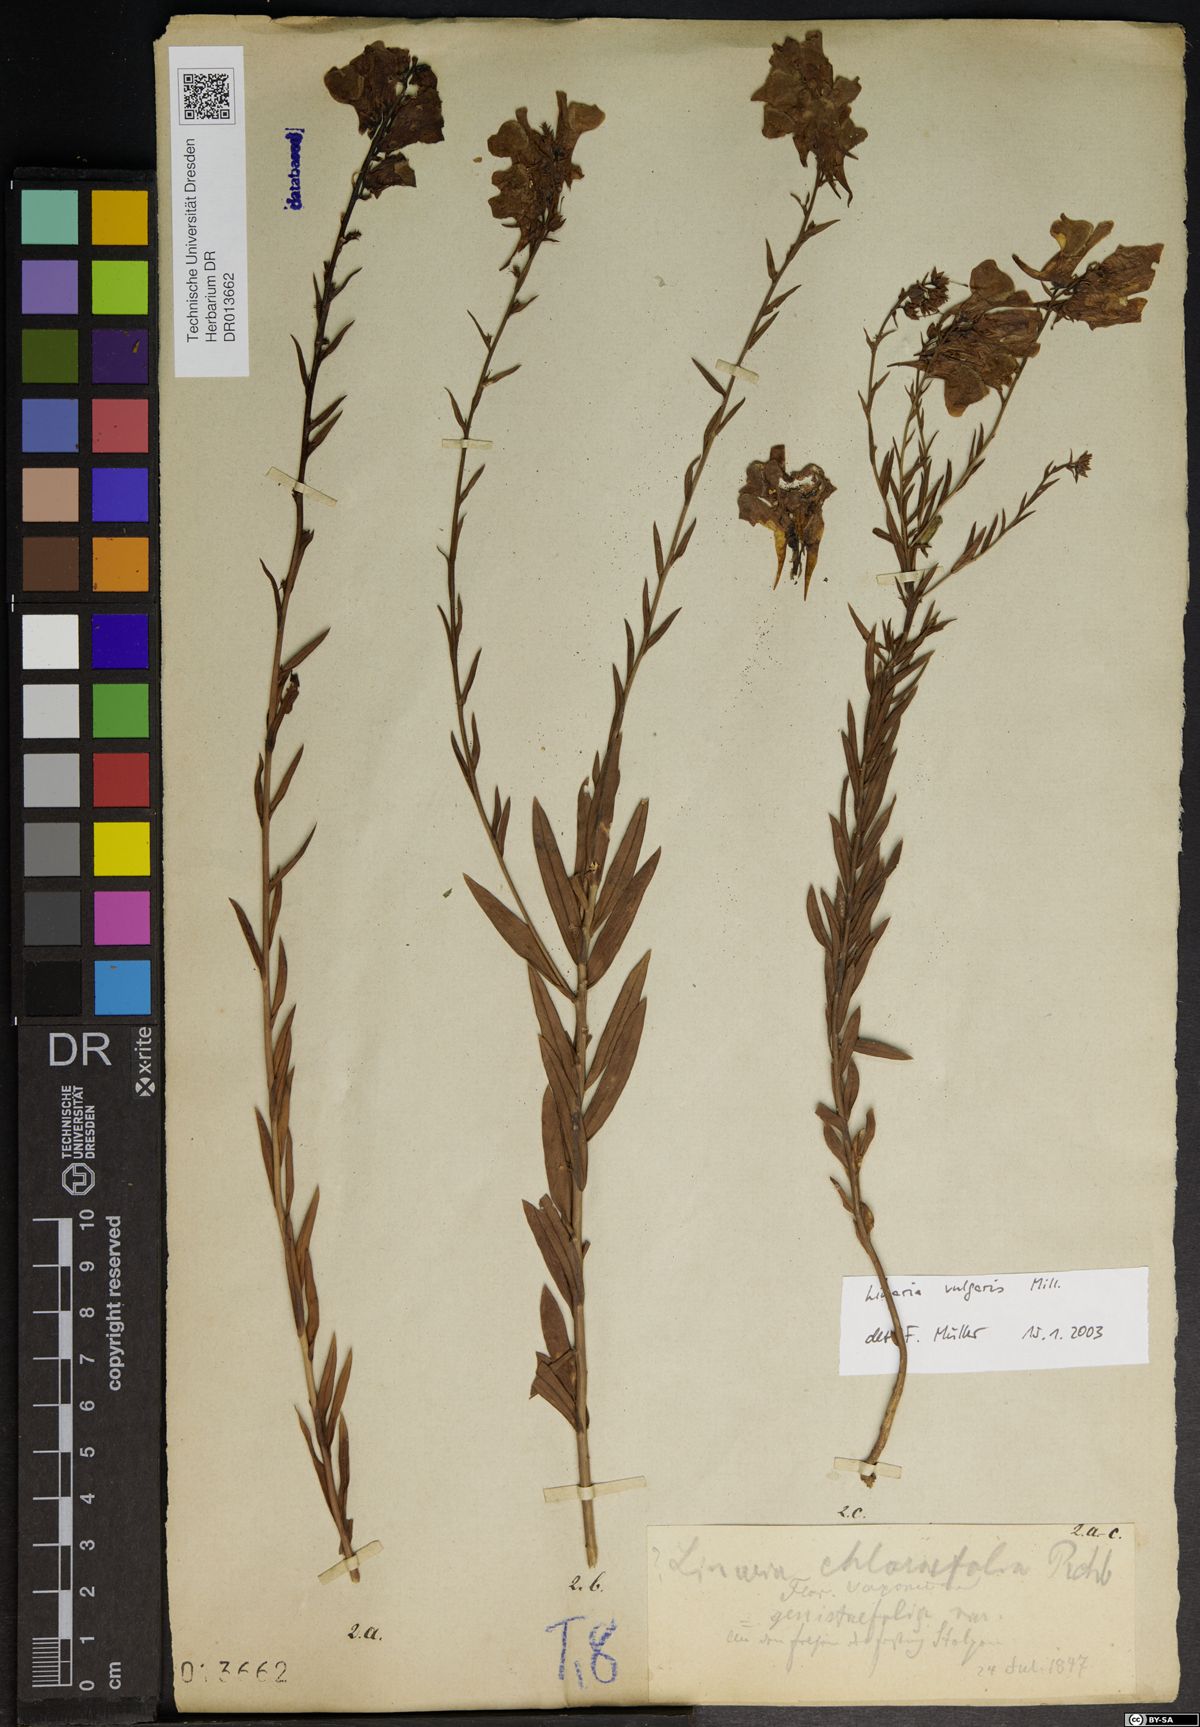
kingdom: Plantae
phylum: Tracheophyta
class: Magnoliopsida
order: Lamiales
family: Plantaginaceae
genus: Linaria
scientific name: Linaria vulgaris
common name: Butter and eggs
